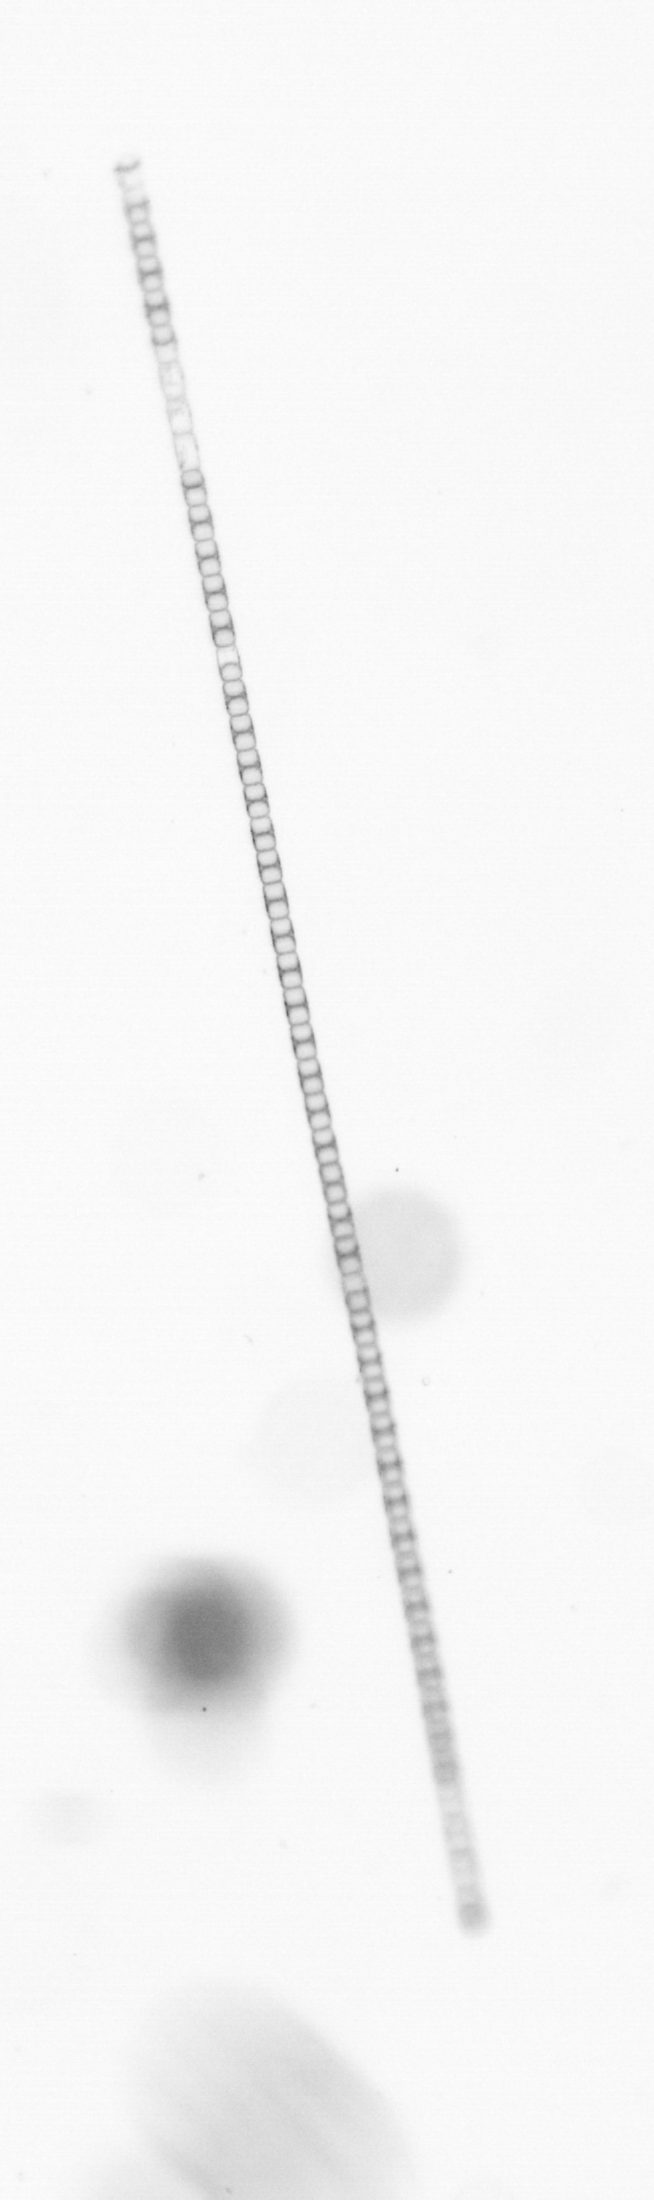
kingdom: Chromista
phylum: Ochrophyta
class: Bacillariophyceae
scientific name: Bacillariophyceae
